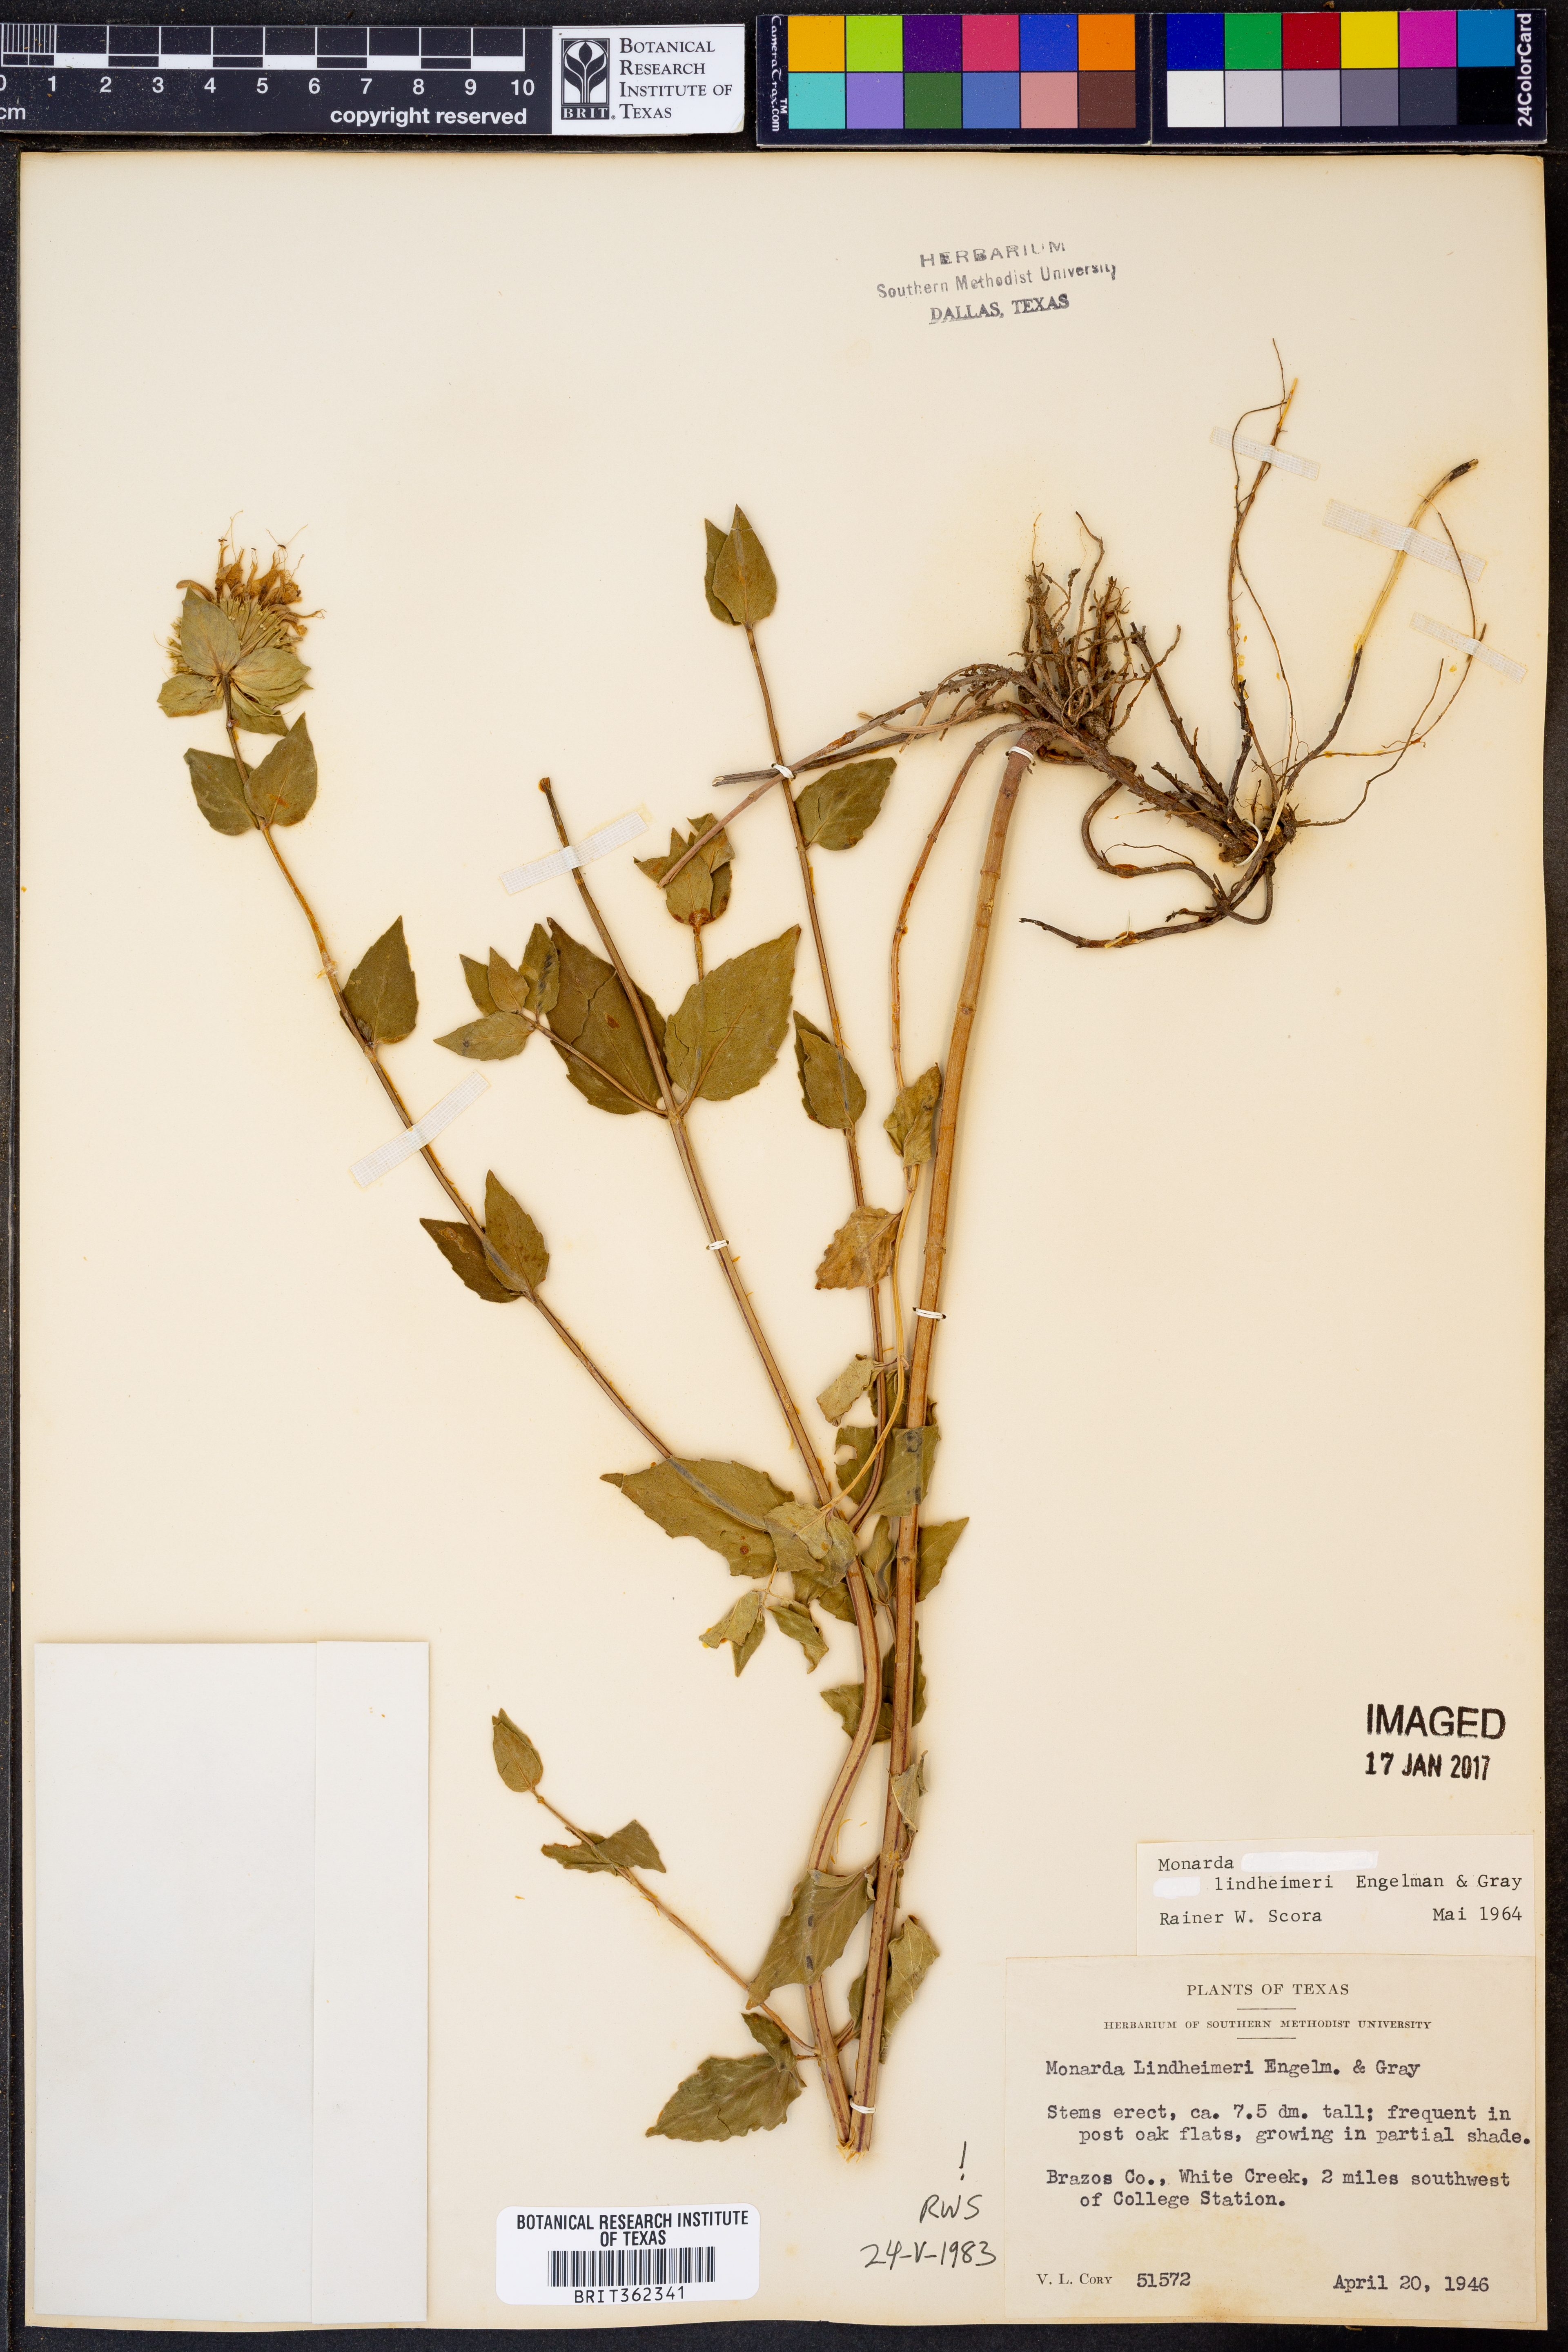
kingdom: Plantae
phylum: Tracheophyta
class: Magnoliopsida
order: Lamiales
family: Lamiaceae
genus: Monarda
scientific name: Monarda lindheimeri
